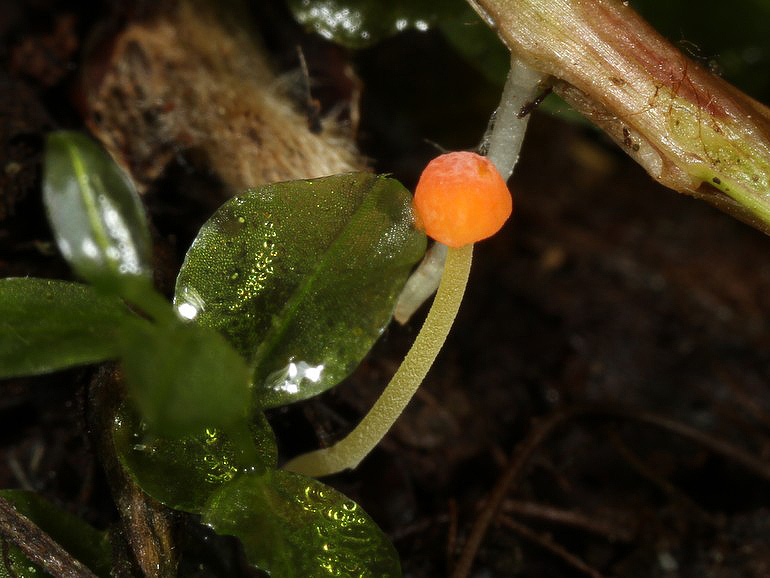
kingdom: Fungi
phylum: Basidiomycota
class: Agaricomycetes
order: Agaricales
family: Mycenaceae
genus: Mycena
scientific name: Mycena acicula
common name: orange huesvamp
